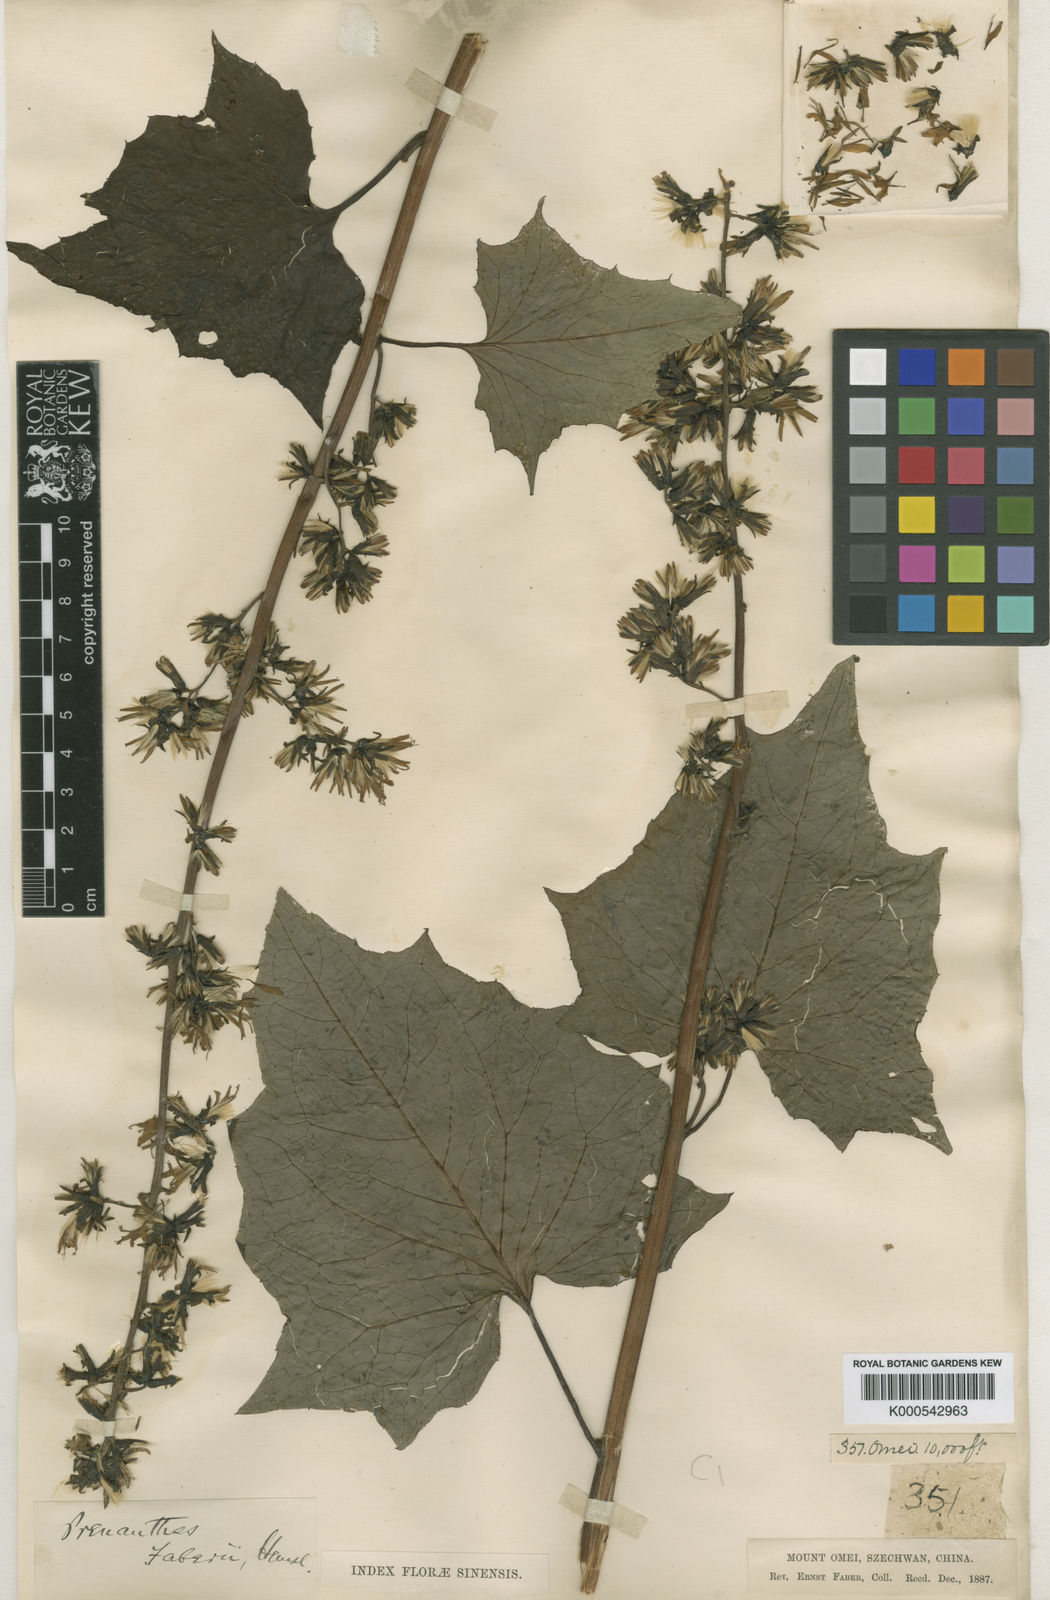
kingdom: Plantae
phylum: Tracheophyta
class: Magnoliopsida
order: Asterales
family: Asteraceae
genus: Faberia
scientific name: Faberia faberi
